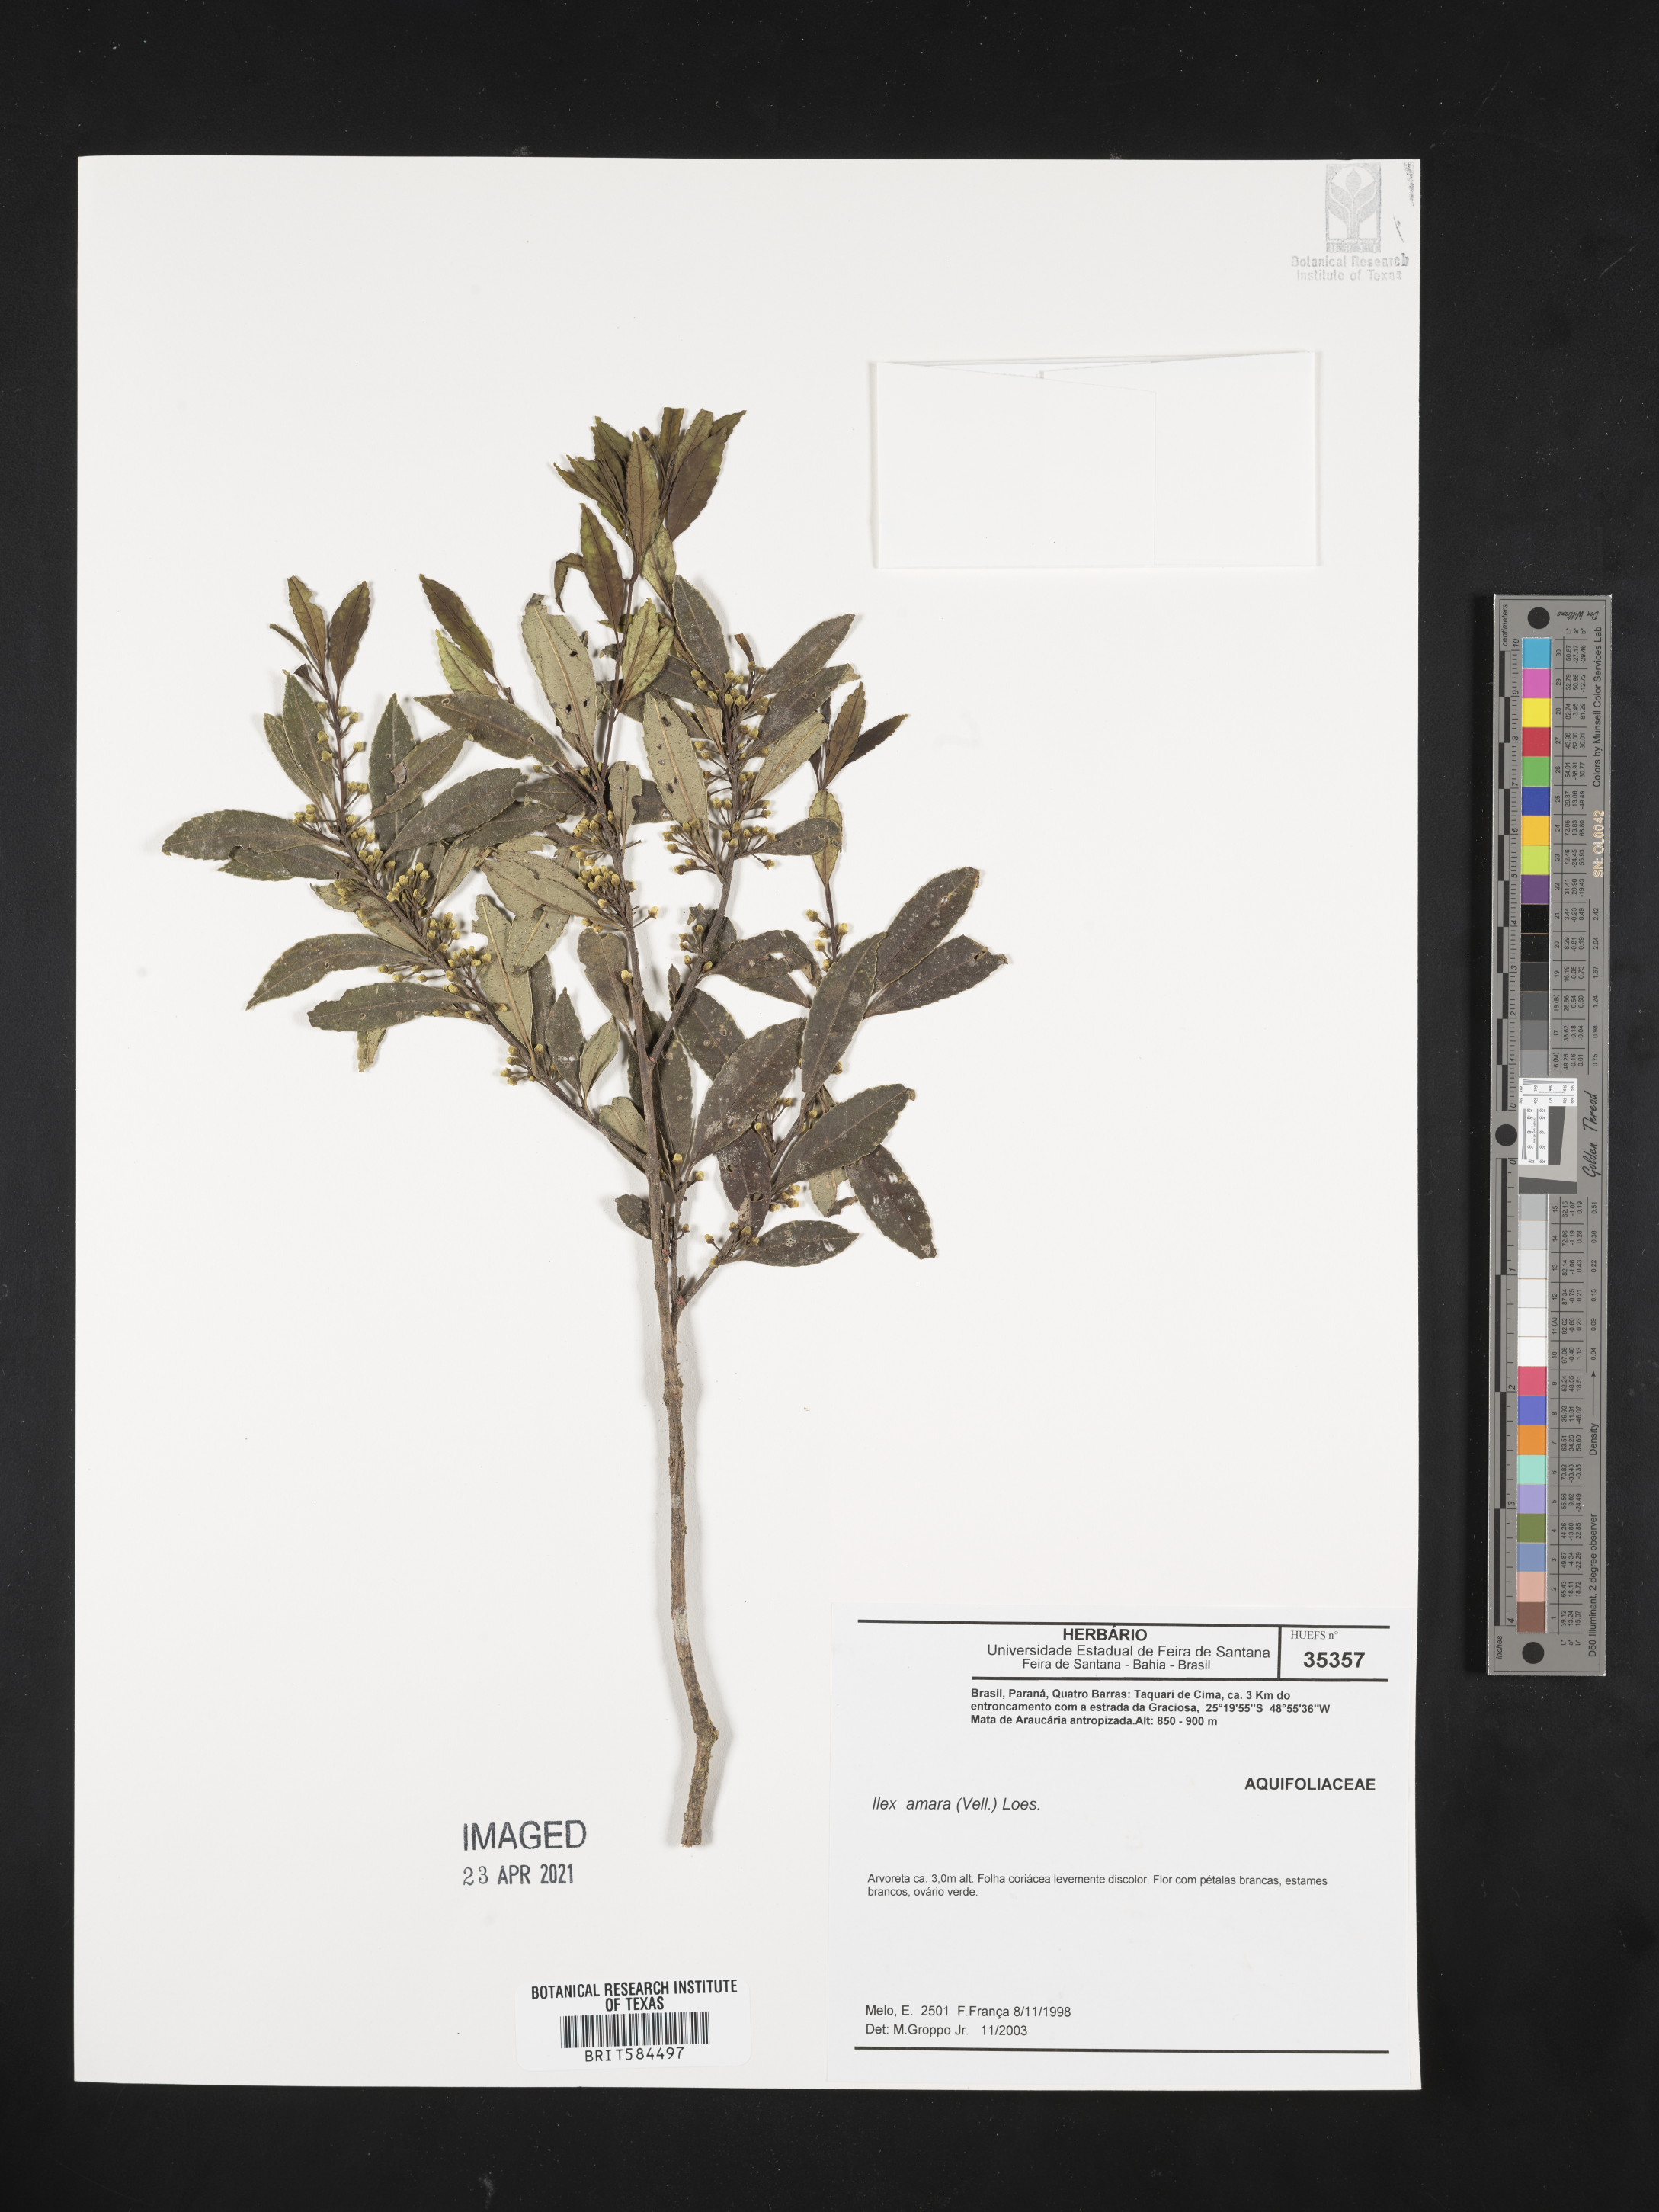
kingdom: Plantae
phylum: Tracheophyta
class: Magnoliopsida
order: Aquifoliales
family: Aquifoliaceae
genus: Ilex
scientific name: Ilex dumosa
